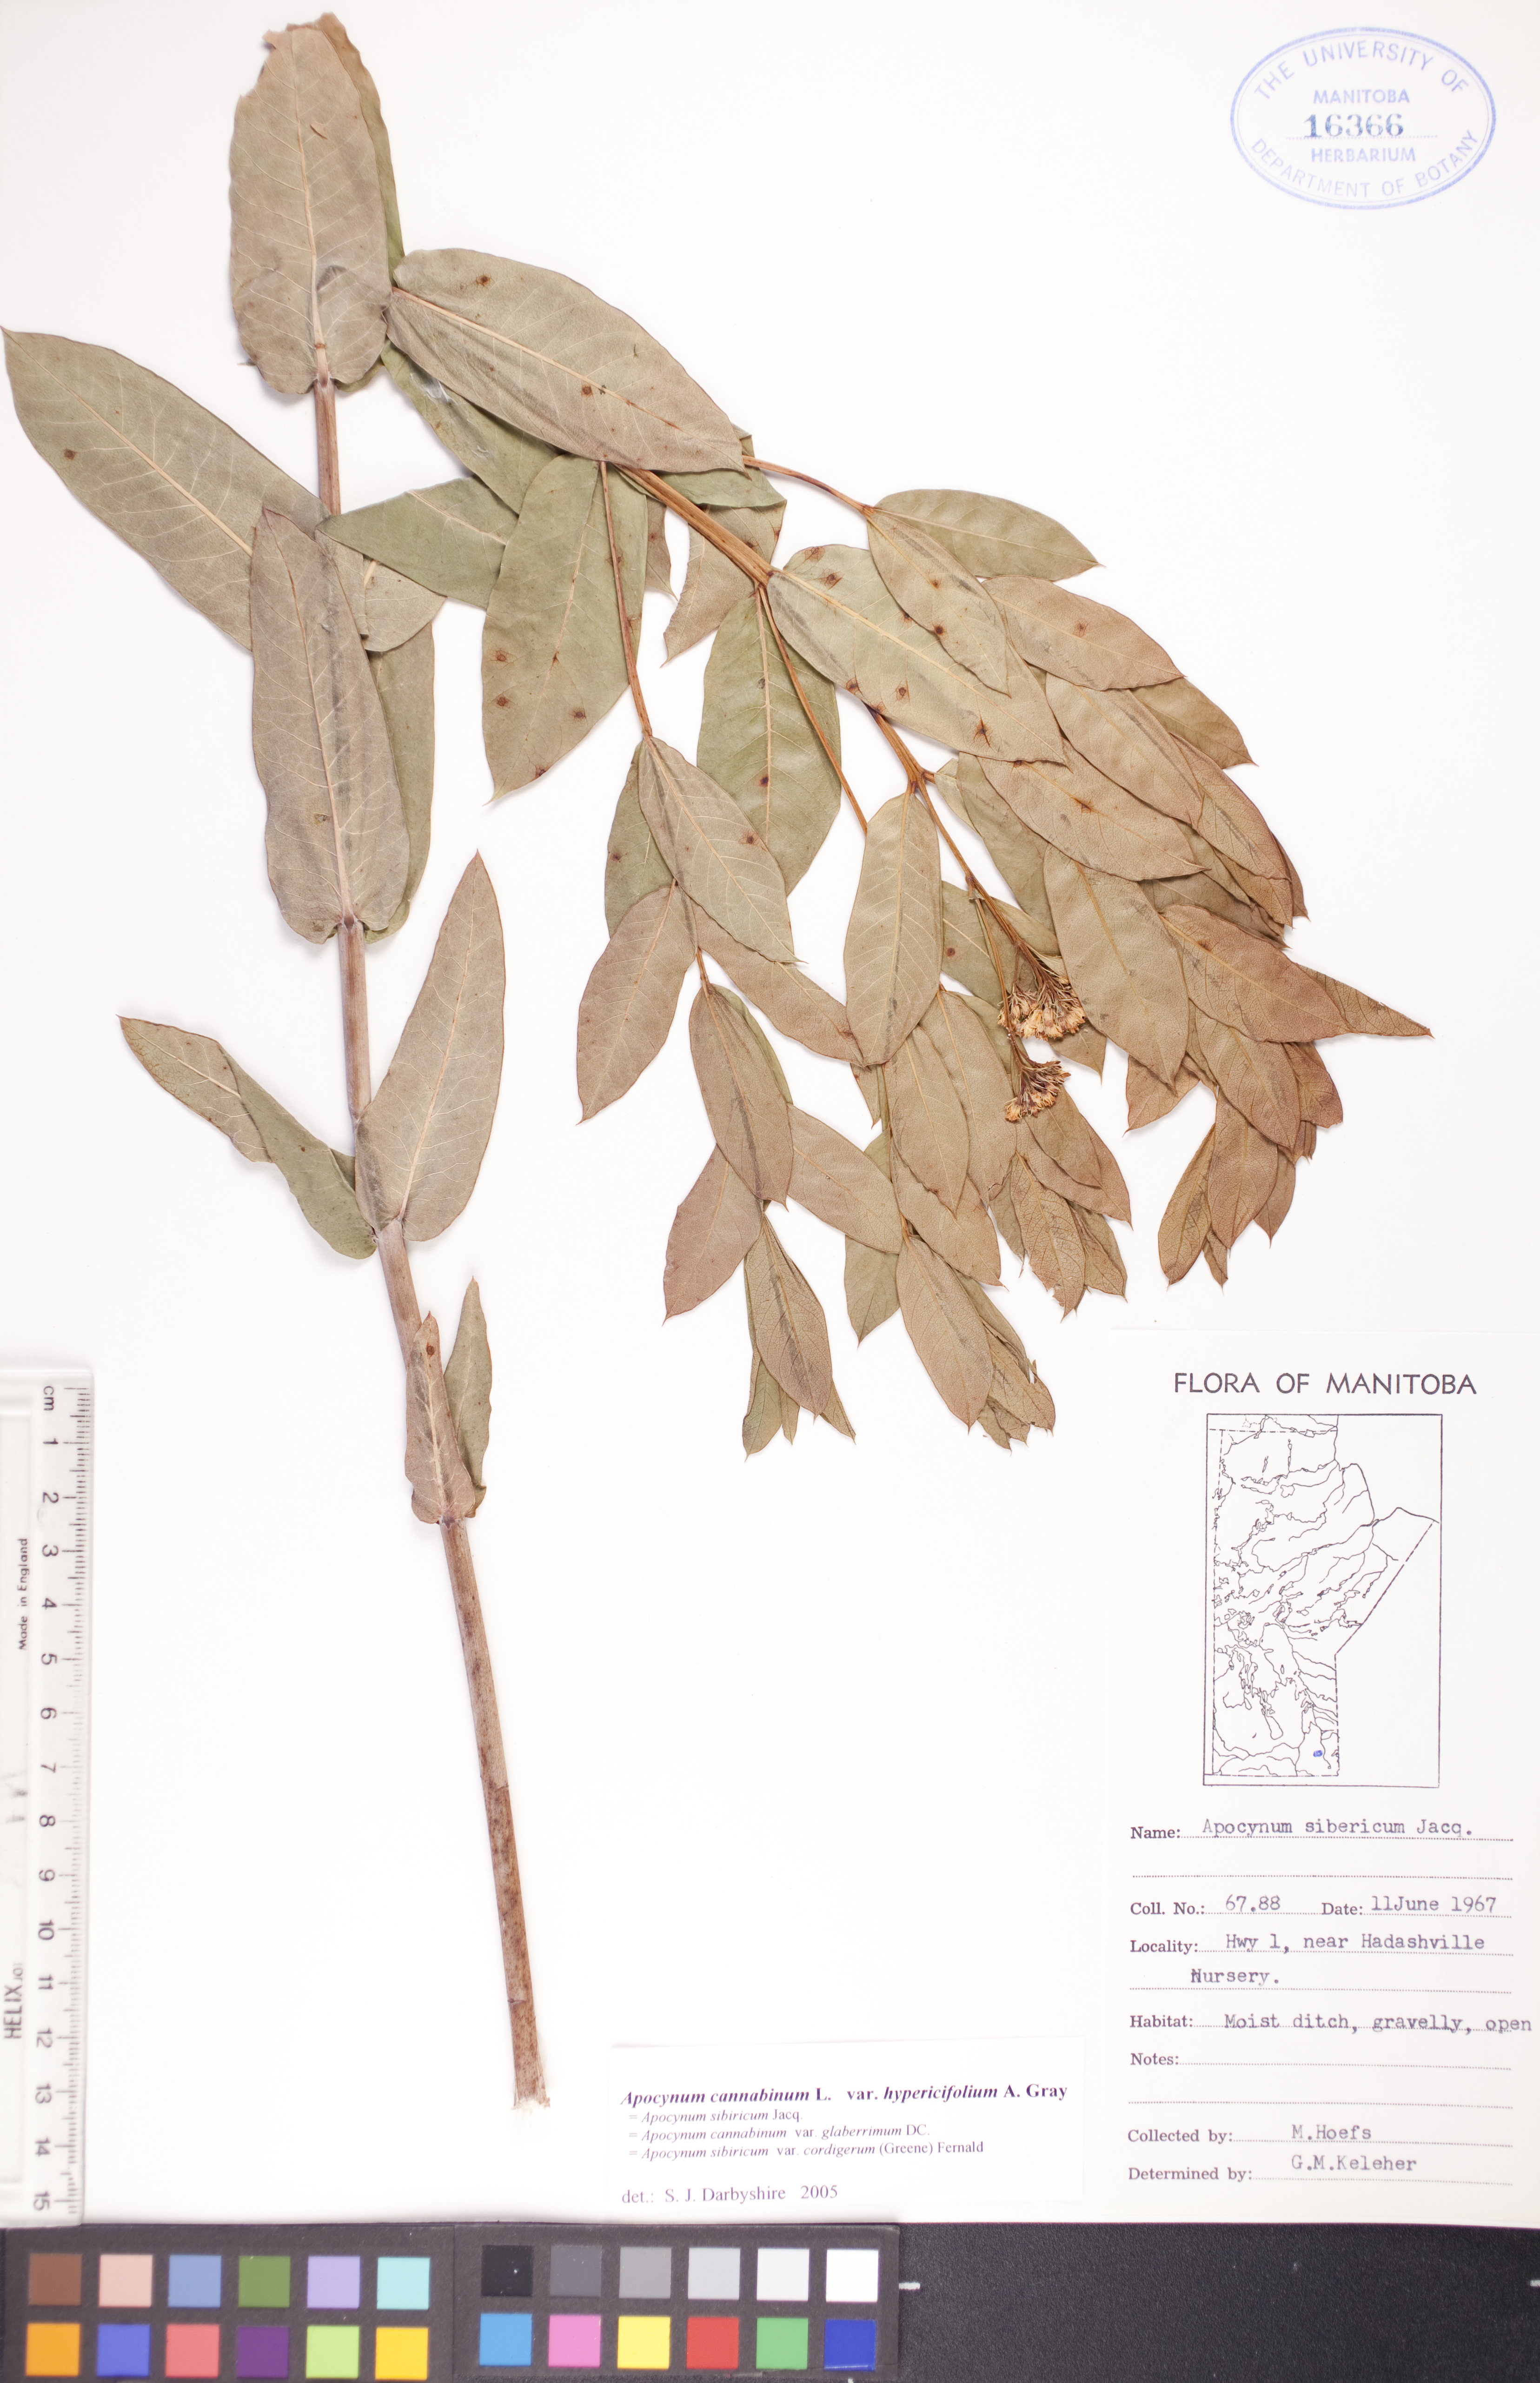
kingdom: Plantae
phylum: Tracheophyta
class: Magnoliopsida
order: Gentianales
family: Apocynaceae
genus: Apocynum
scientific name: Apocynum cannabinum
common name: Hemp dogbane
